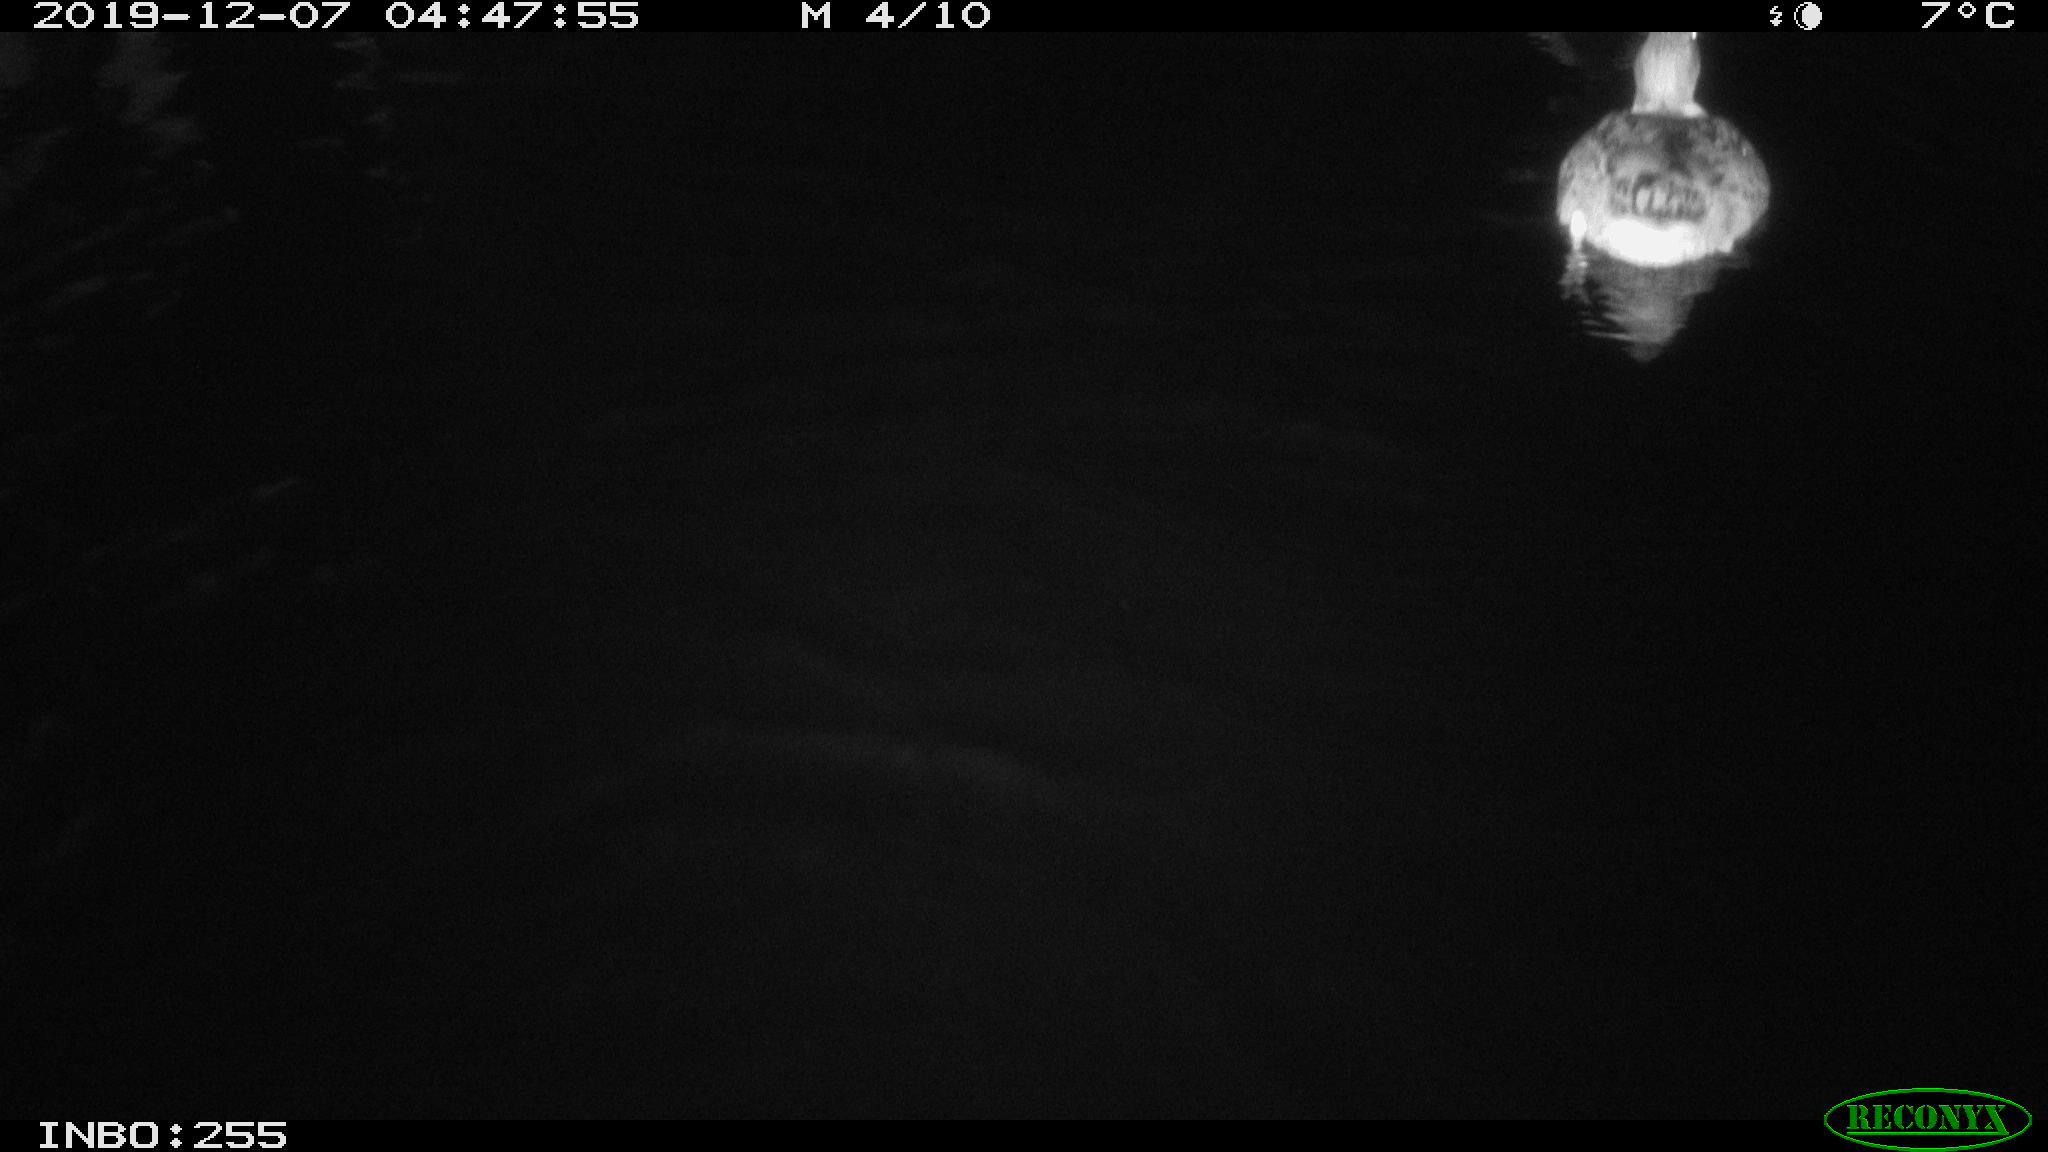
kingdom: Animalia
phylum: Chordata
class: Aves
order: Anseriformes
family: Anatidae
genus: Anas
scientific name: Anas platyrhynchos
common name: Mallard
